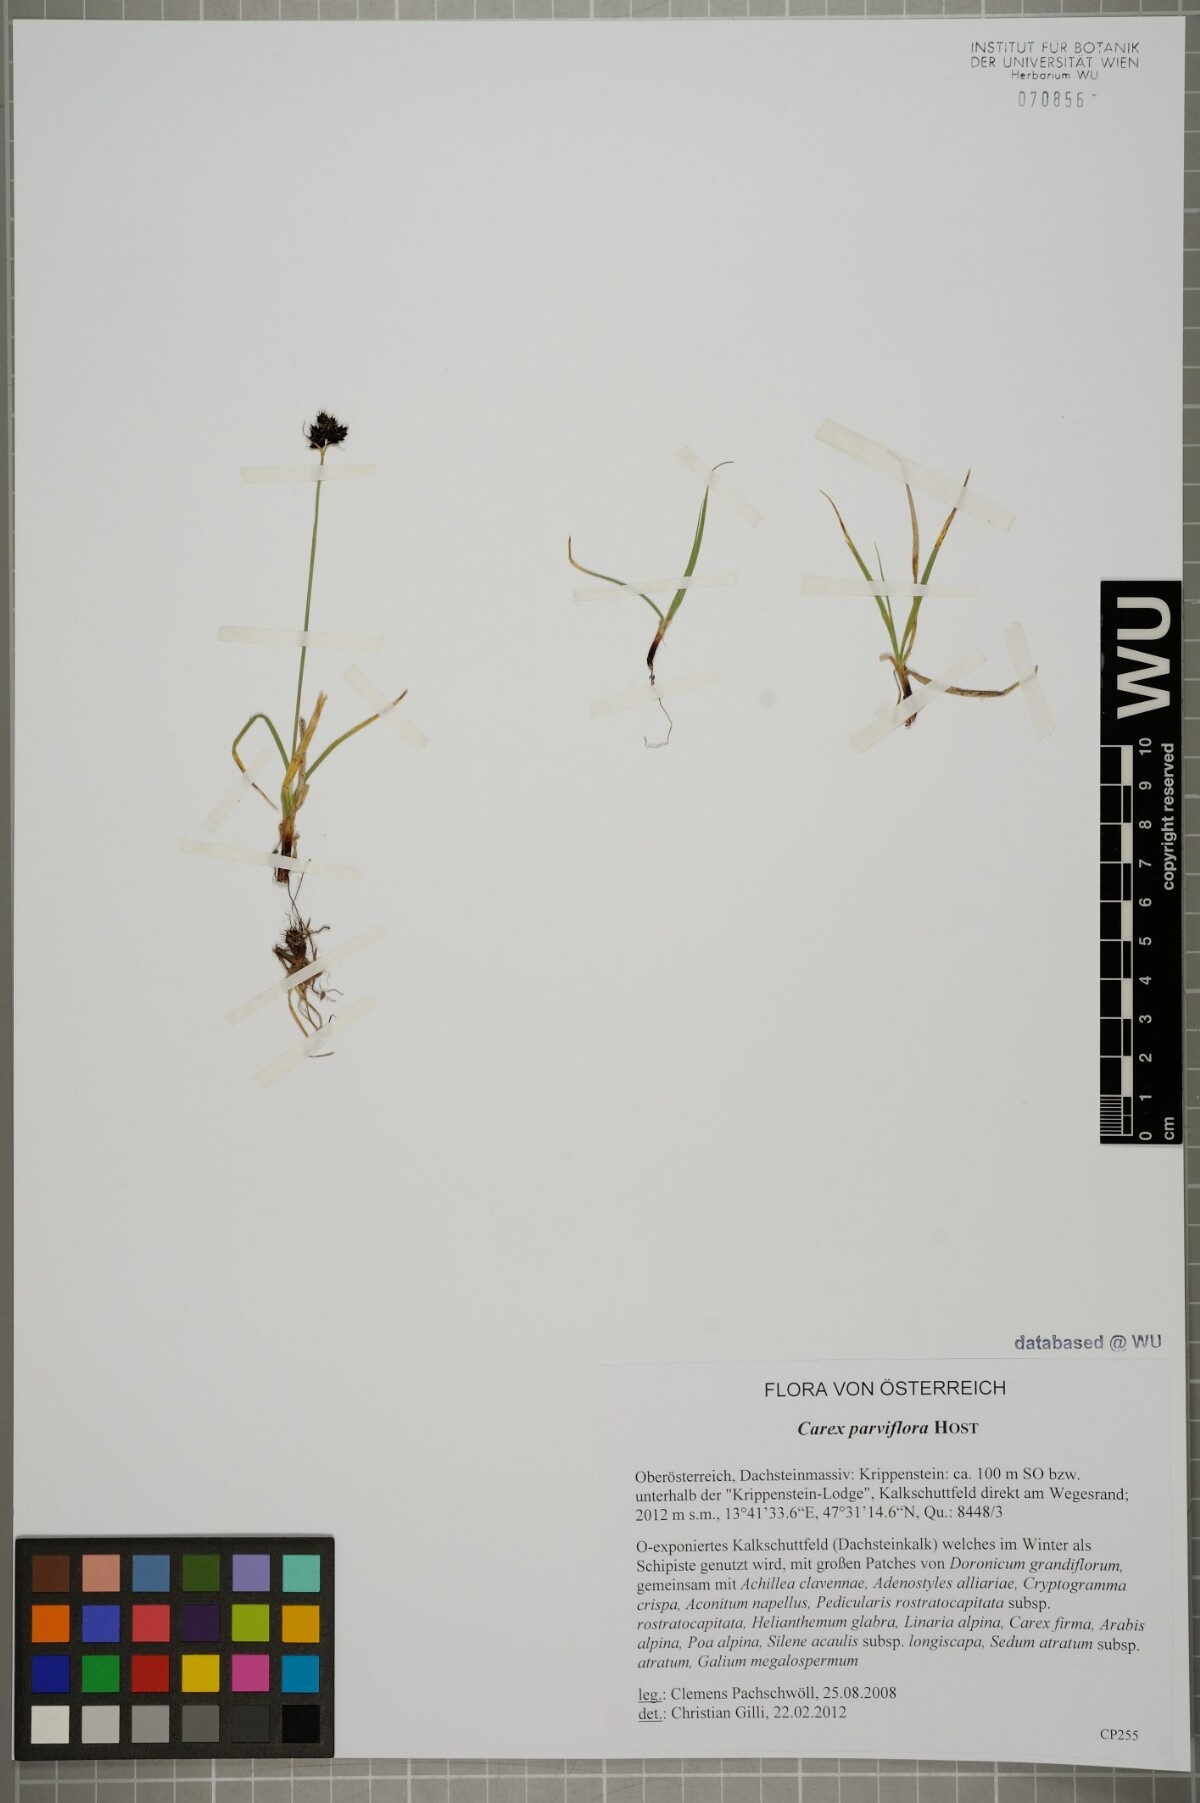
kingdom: Plantae
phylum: Tracheophyta
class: Liliopsida
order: Poales
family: Cyperaceae
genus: Carex
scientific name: Carex parviflora
